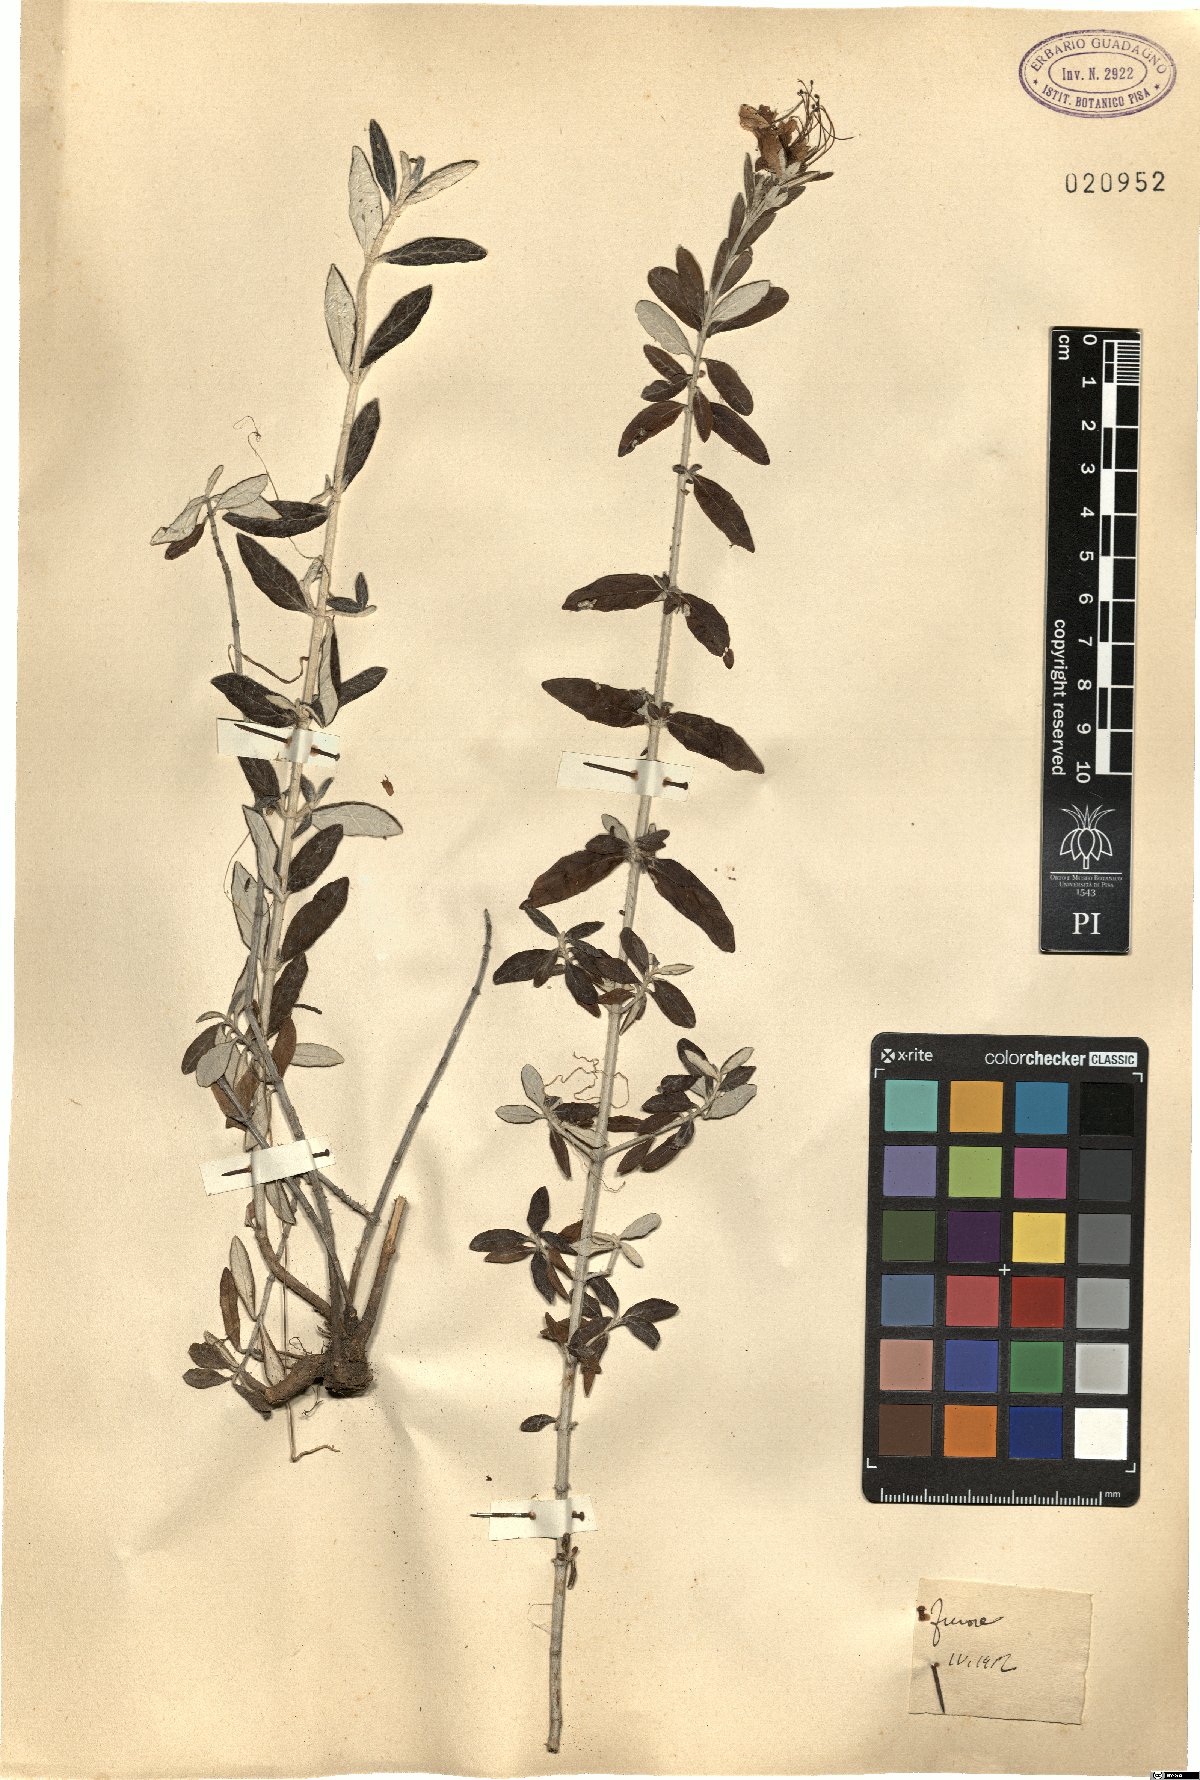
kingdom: Plantae
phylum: Tracheophyta
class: Magnoliopsida
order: Lamiales
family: Lamiaceae
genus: Teucrium
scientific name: Teucrium
